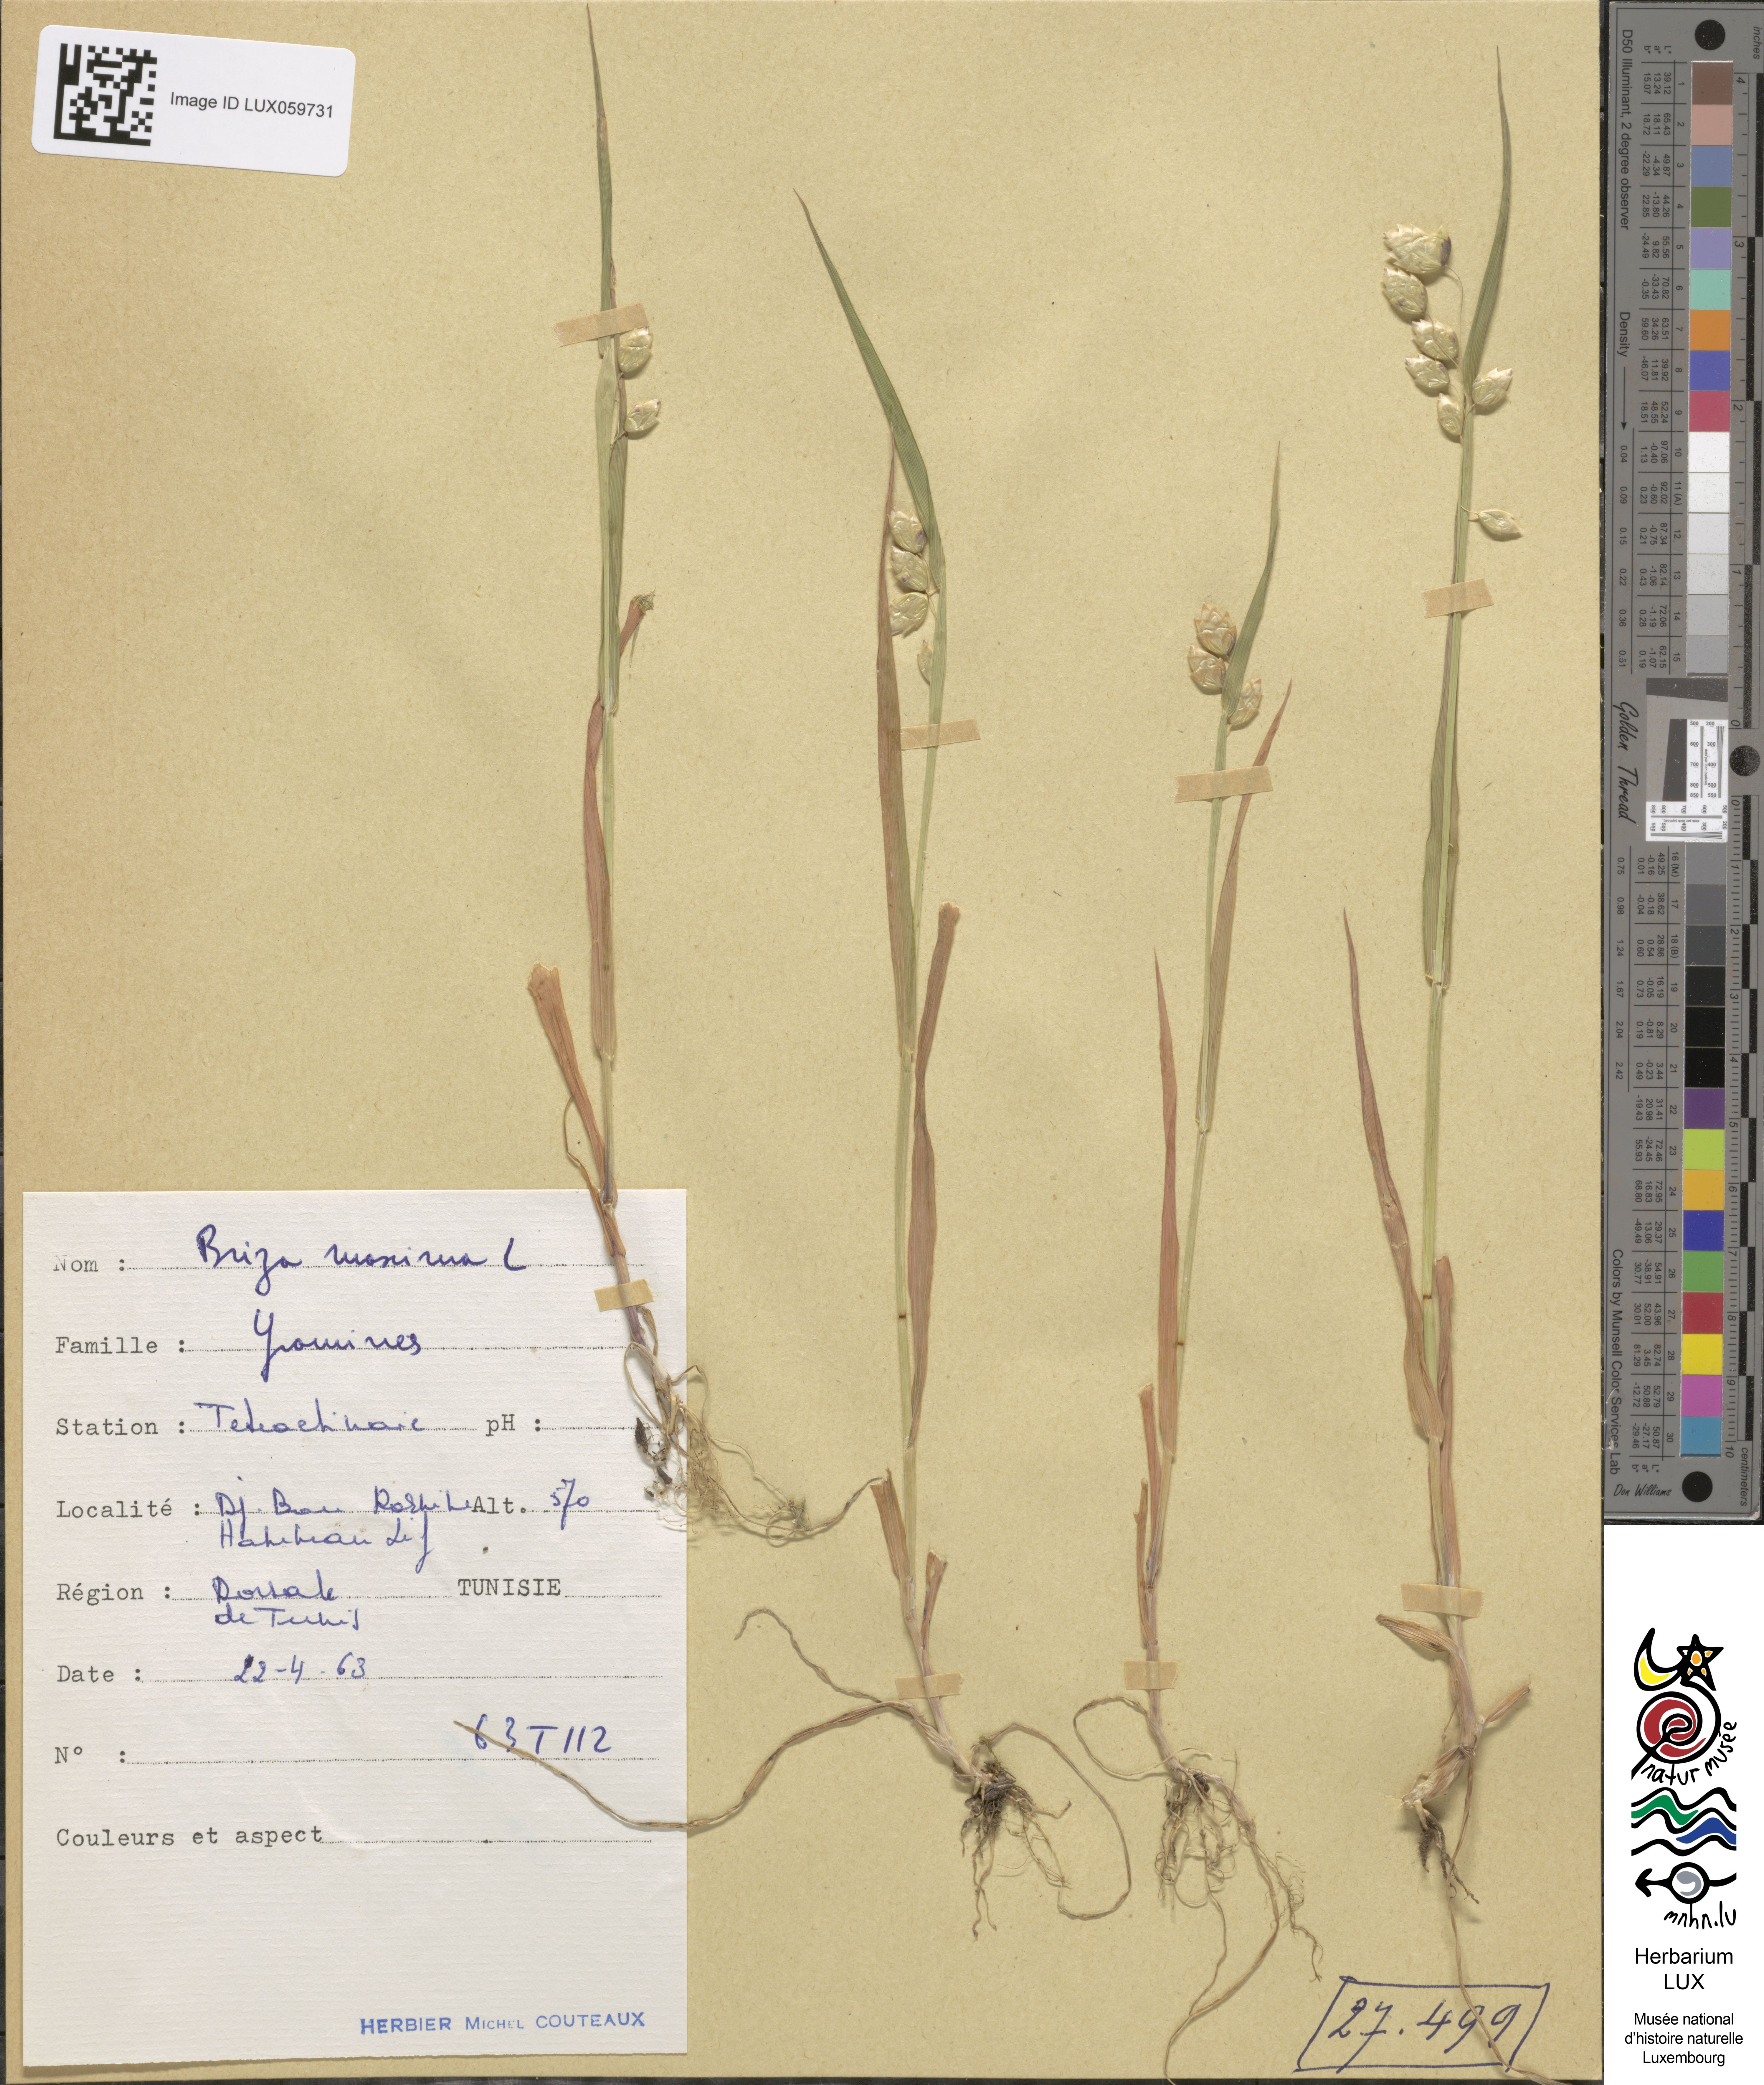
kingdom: Plantae
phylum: Tracheophyta
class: Liliopsida
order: Poales
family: Poaceae
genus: Briza
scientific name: Briza maxima
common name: Big quakinggrass
